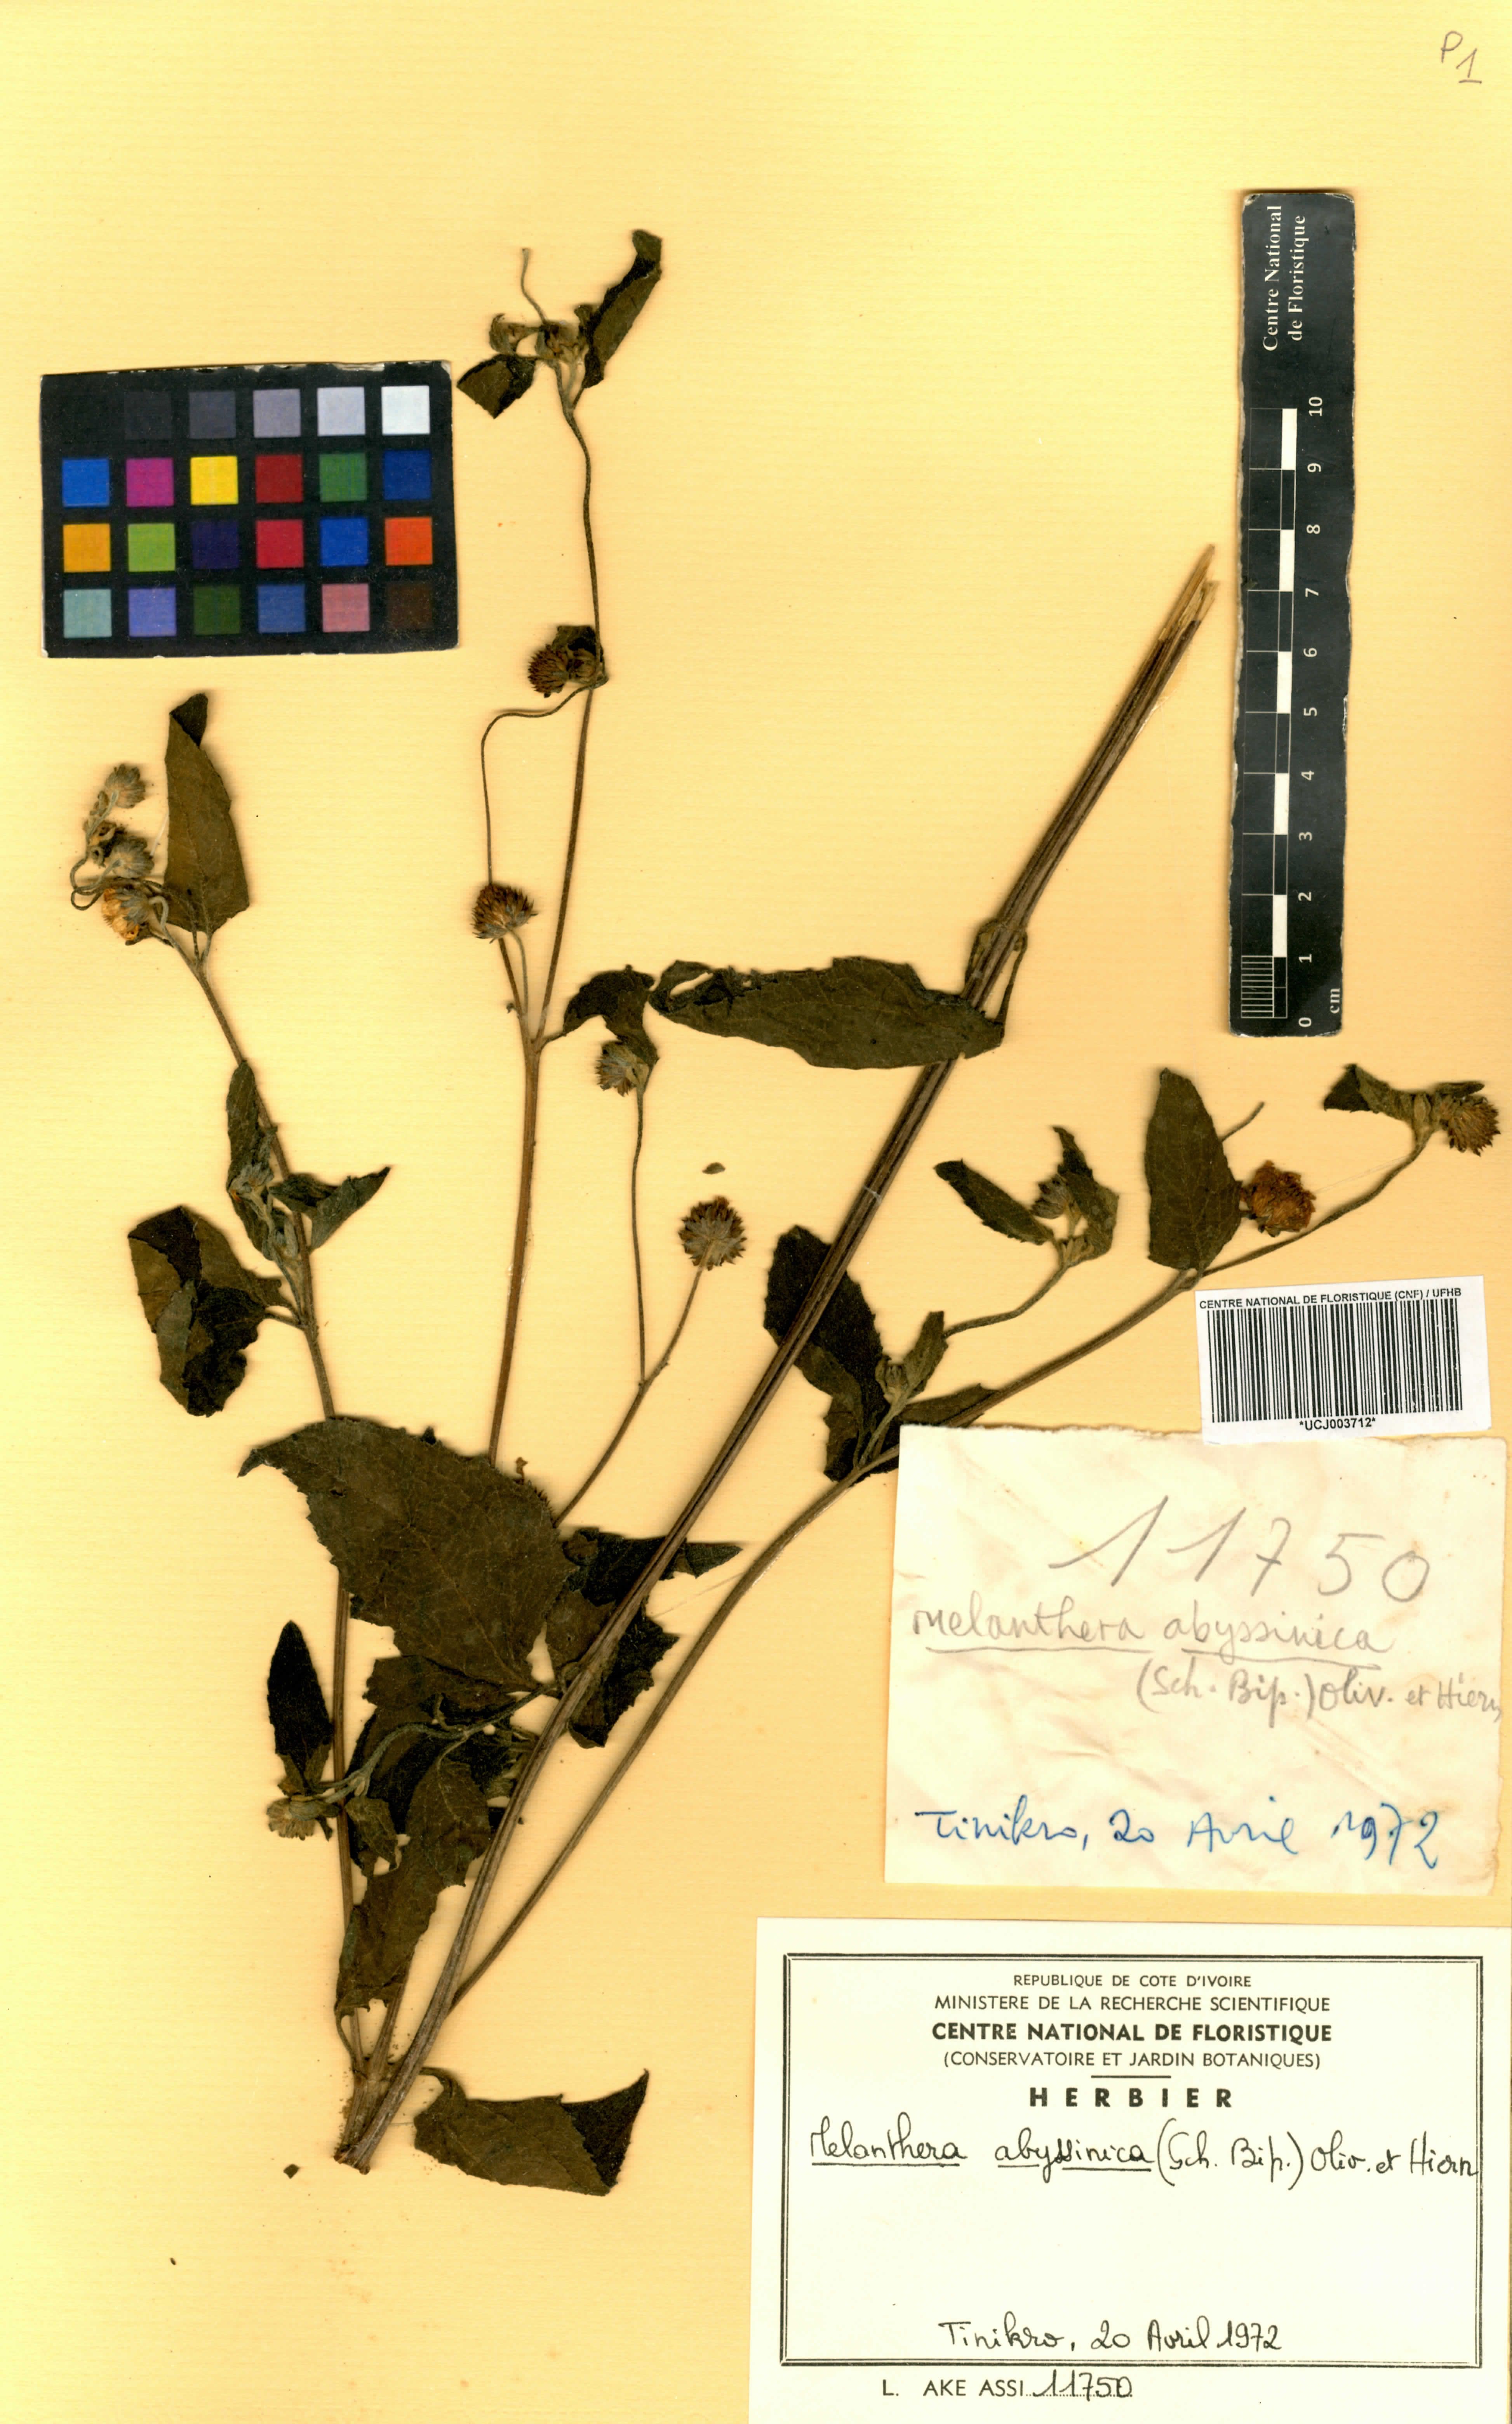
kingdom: Plantae
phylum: Tracheophyta
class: Magnoliopsida
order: Asterales
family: Asteraceae
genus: Lipotriche
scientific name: Lipotriche abyssinica
